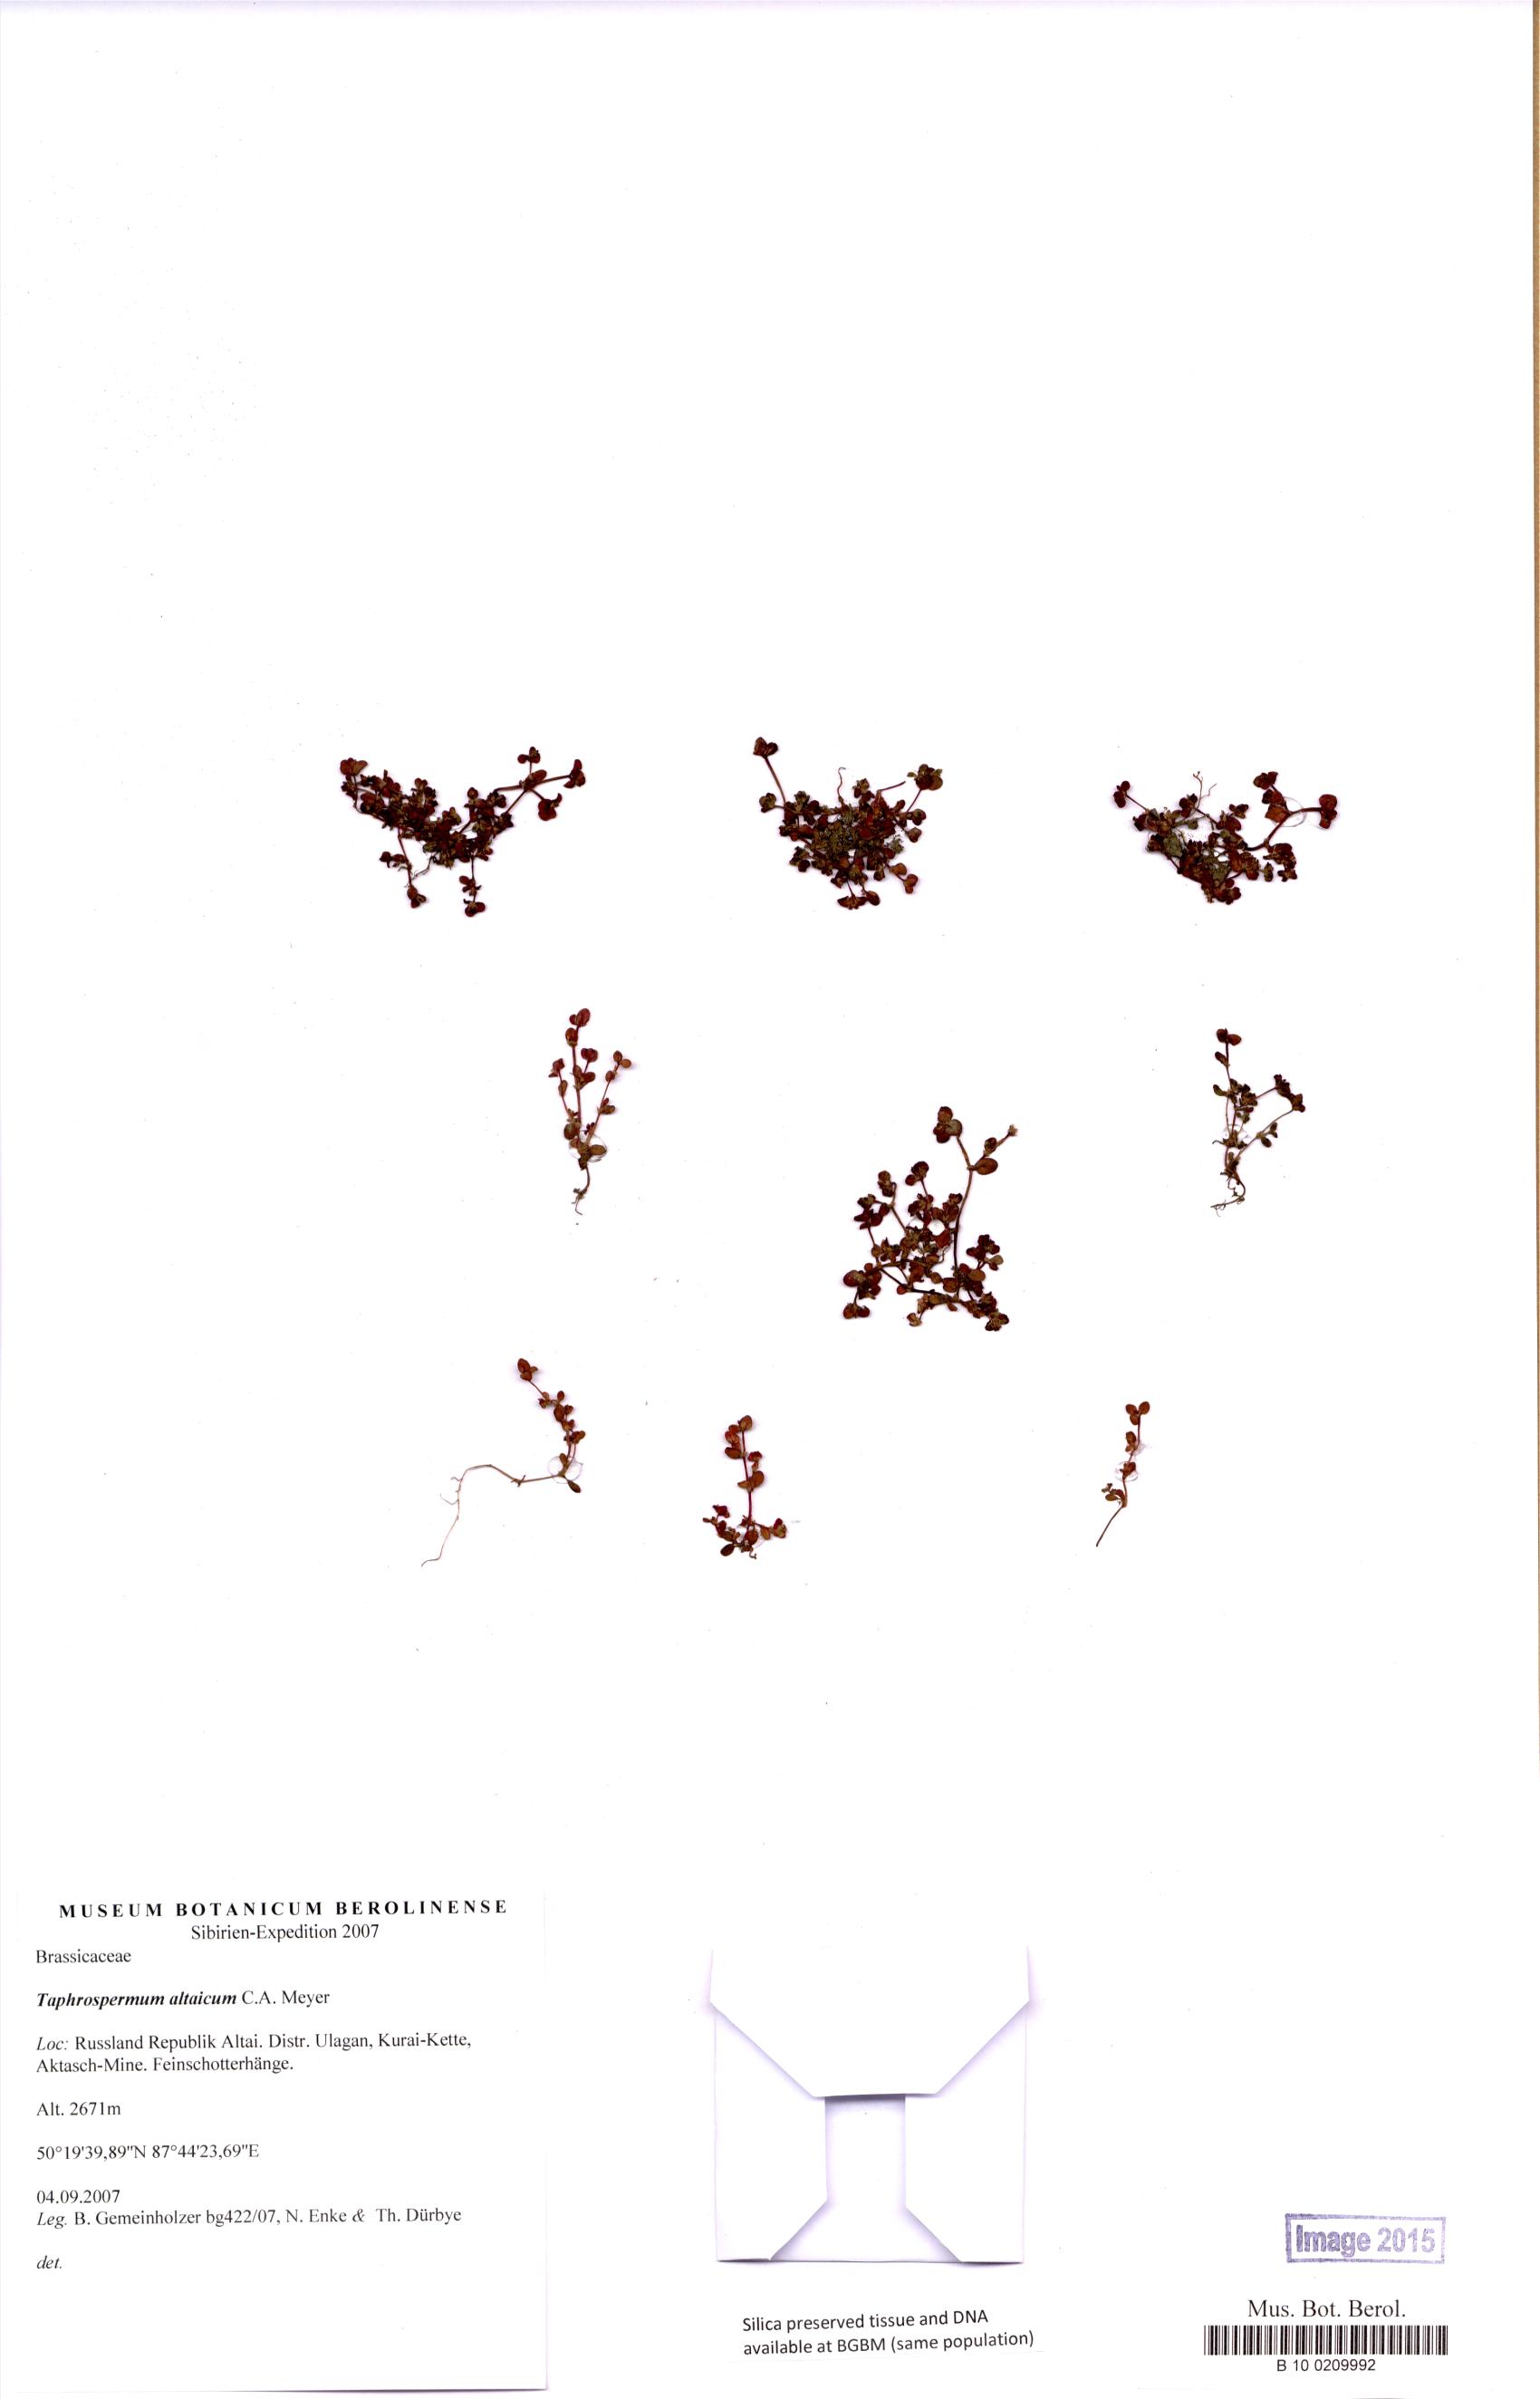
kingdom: Plantae
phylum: Tracheophyta
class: Magnoliopsida
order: Brassicales
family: Brassicaceae
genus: Eutrema
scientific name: Eutrema altaicum
